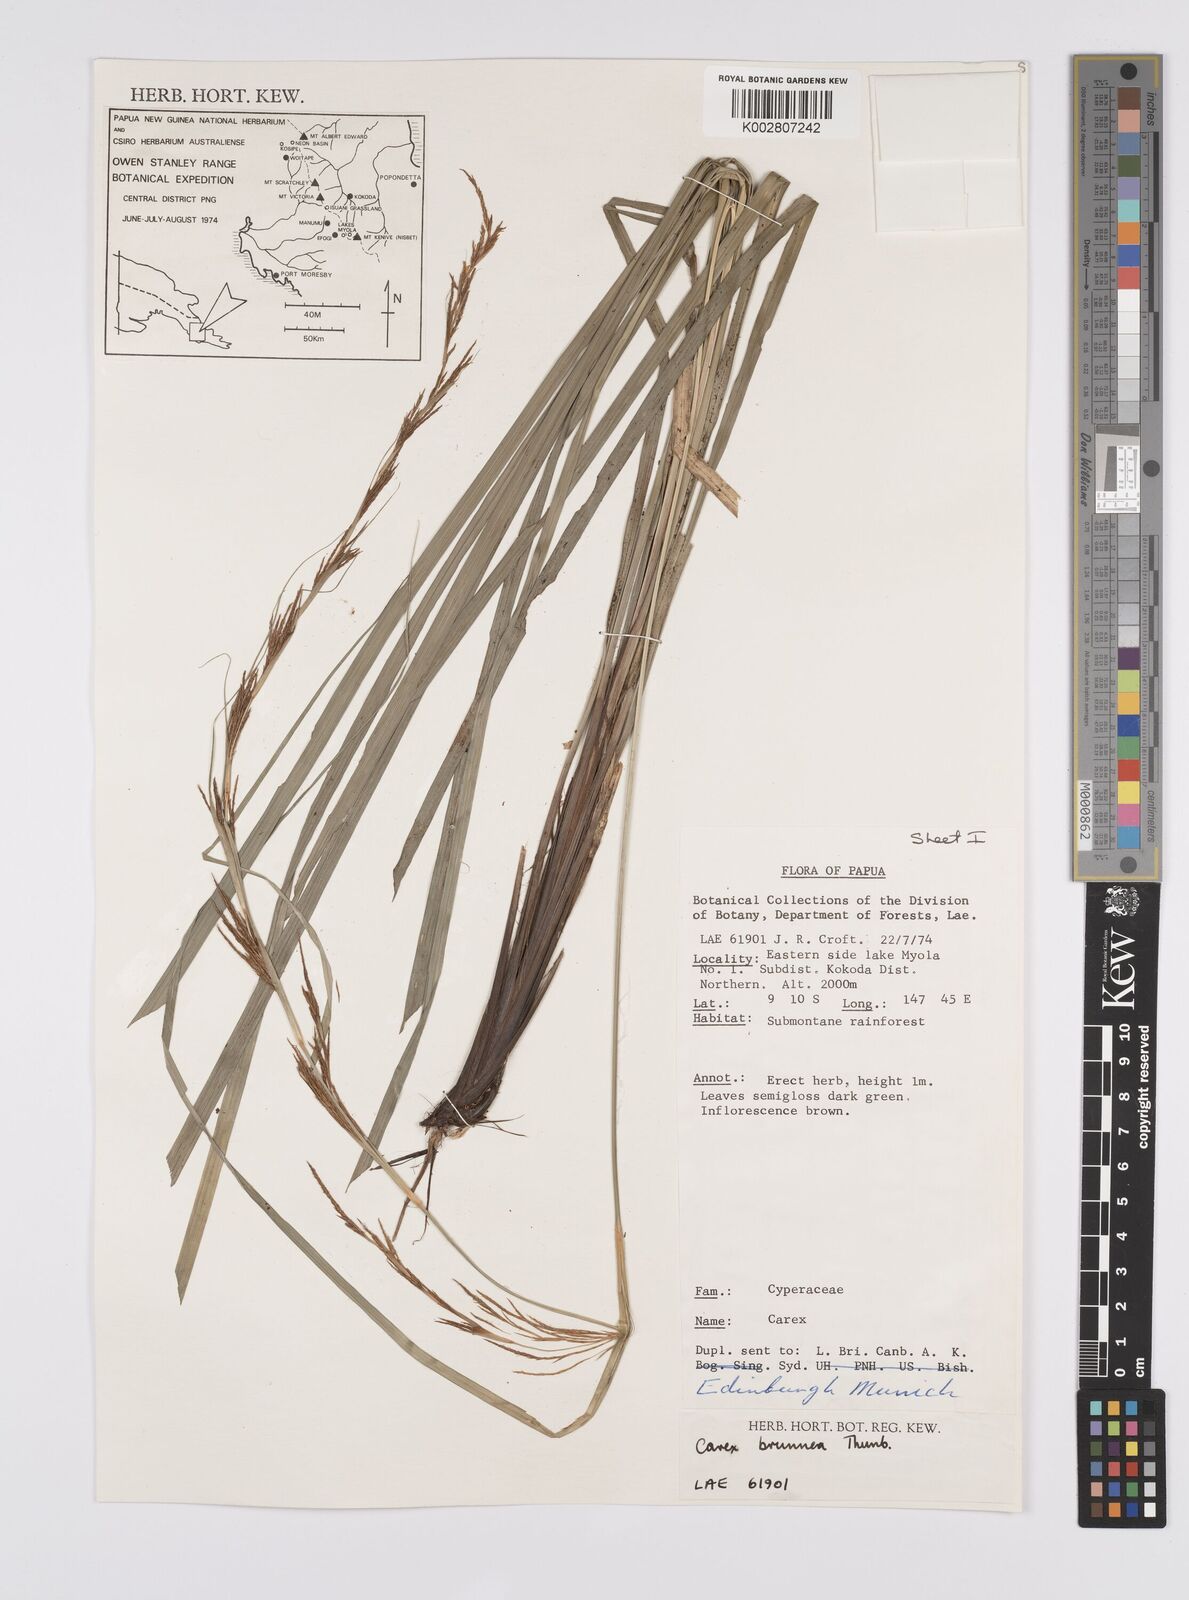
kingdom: Plantae
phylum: Tracheophyta
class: Liliopsida
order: Poales
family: Cyperaceae
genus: Carex
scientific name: Carex brunnea
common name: Greater brown sedge
